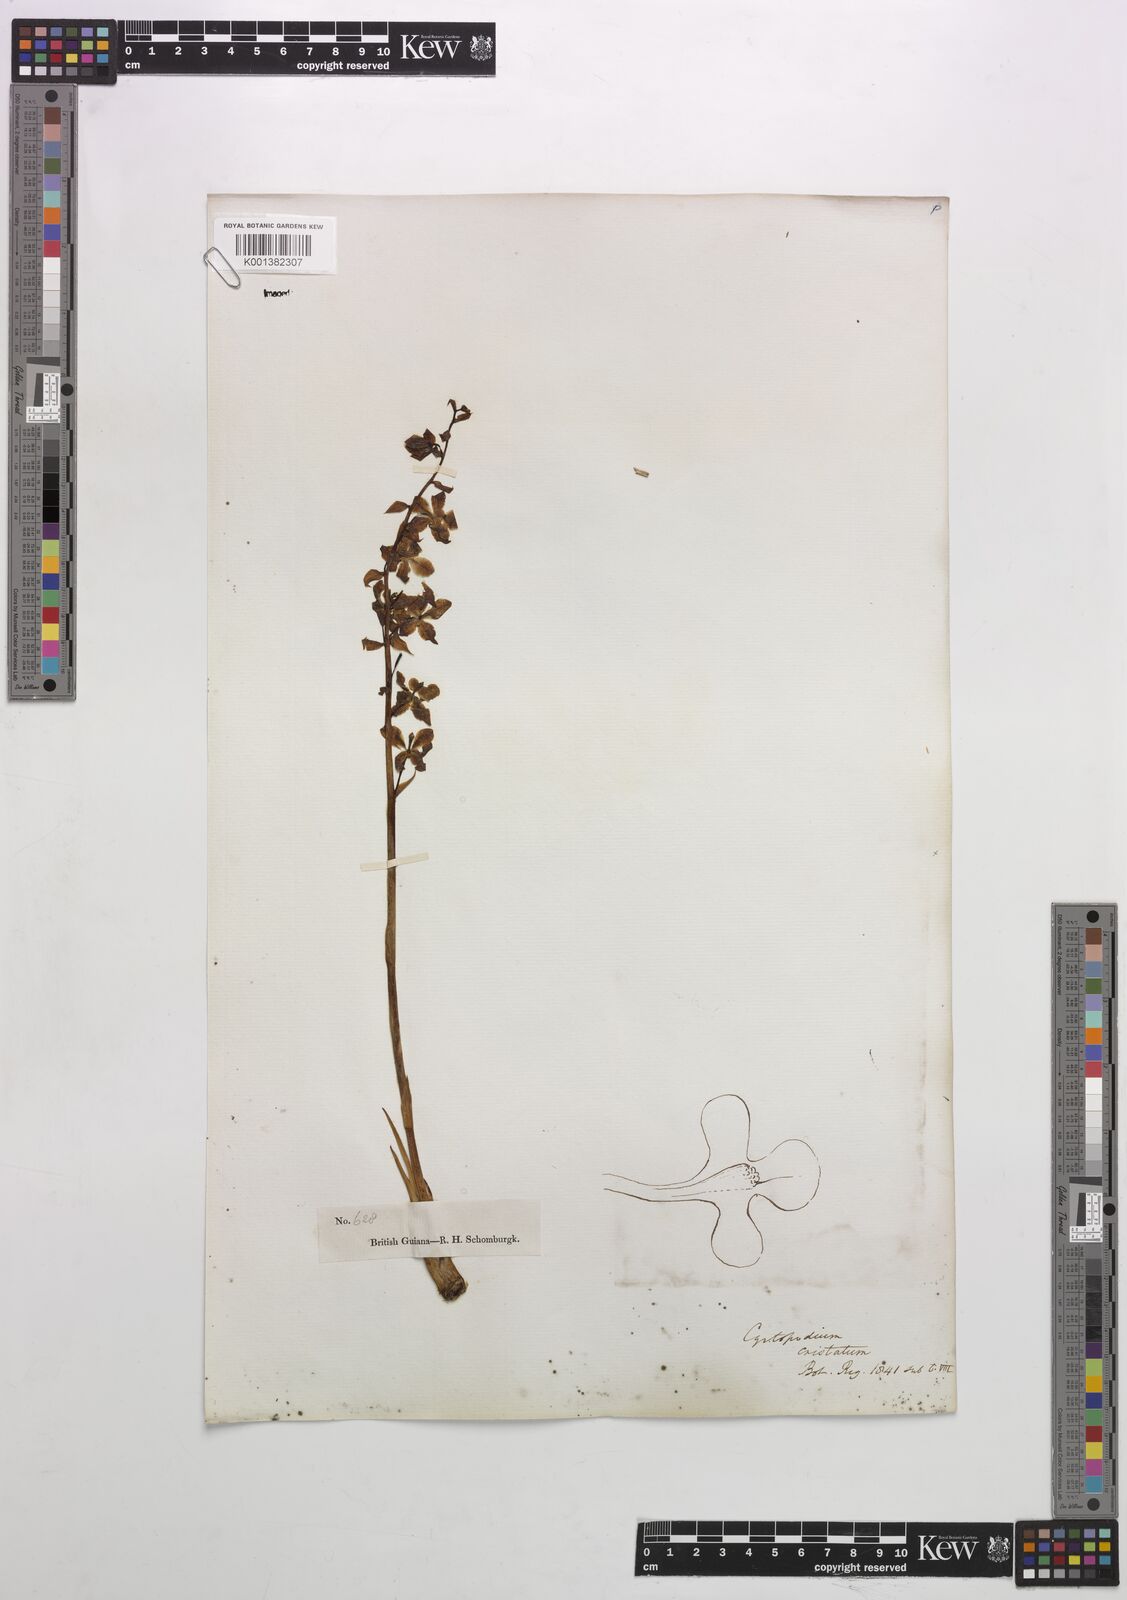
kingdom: Plantae
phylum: Tracheophyta
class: Liliopsida
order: Asparagales
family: Orchidaceae
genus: Cyrtopodium
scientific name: Cyrtopodium cristatum
